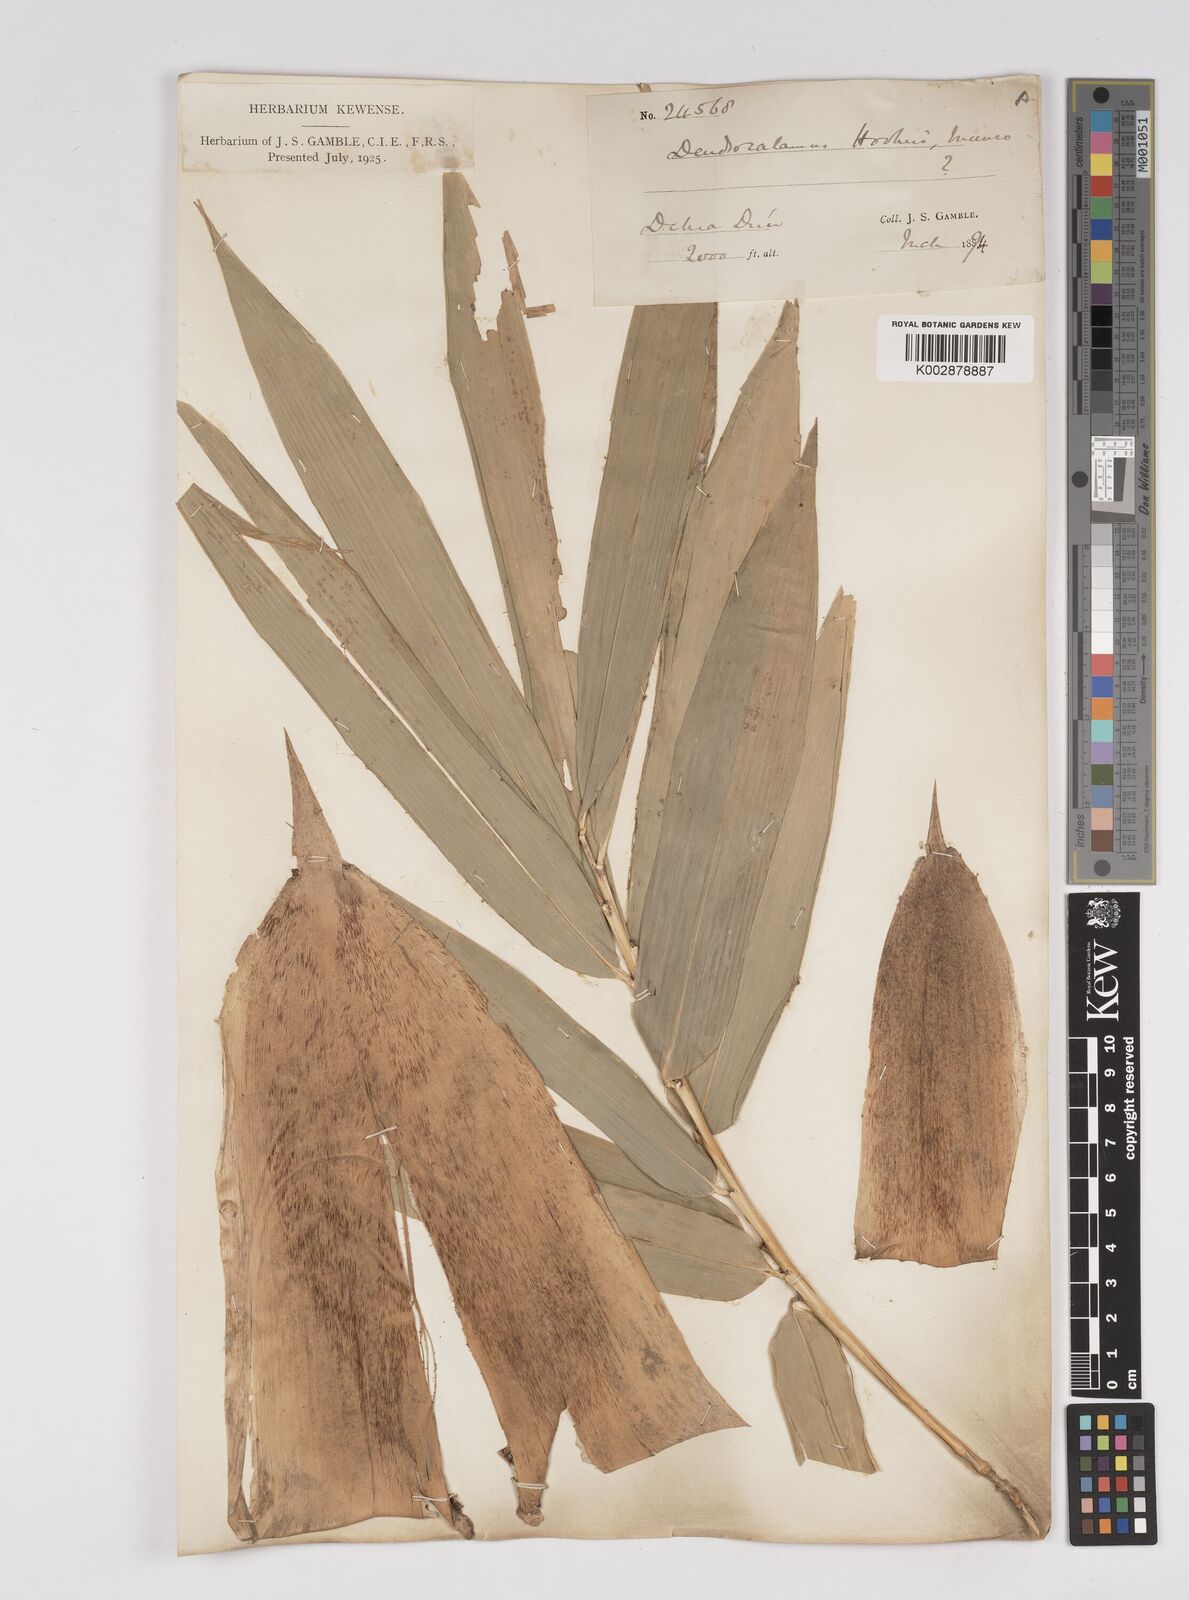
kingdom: Plantae
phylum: Tracheophyta
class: Liliopsida
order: Poales
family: Poaceae
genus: Dendrocalamus
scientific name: Dendrocalamus hookeri
